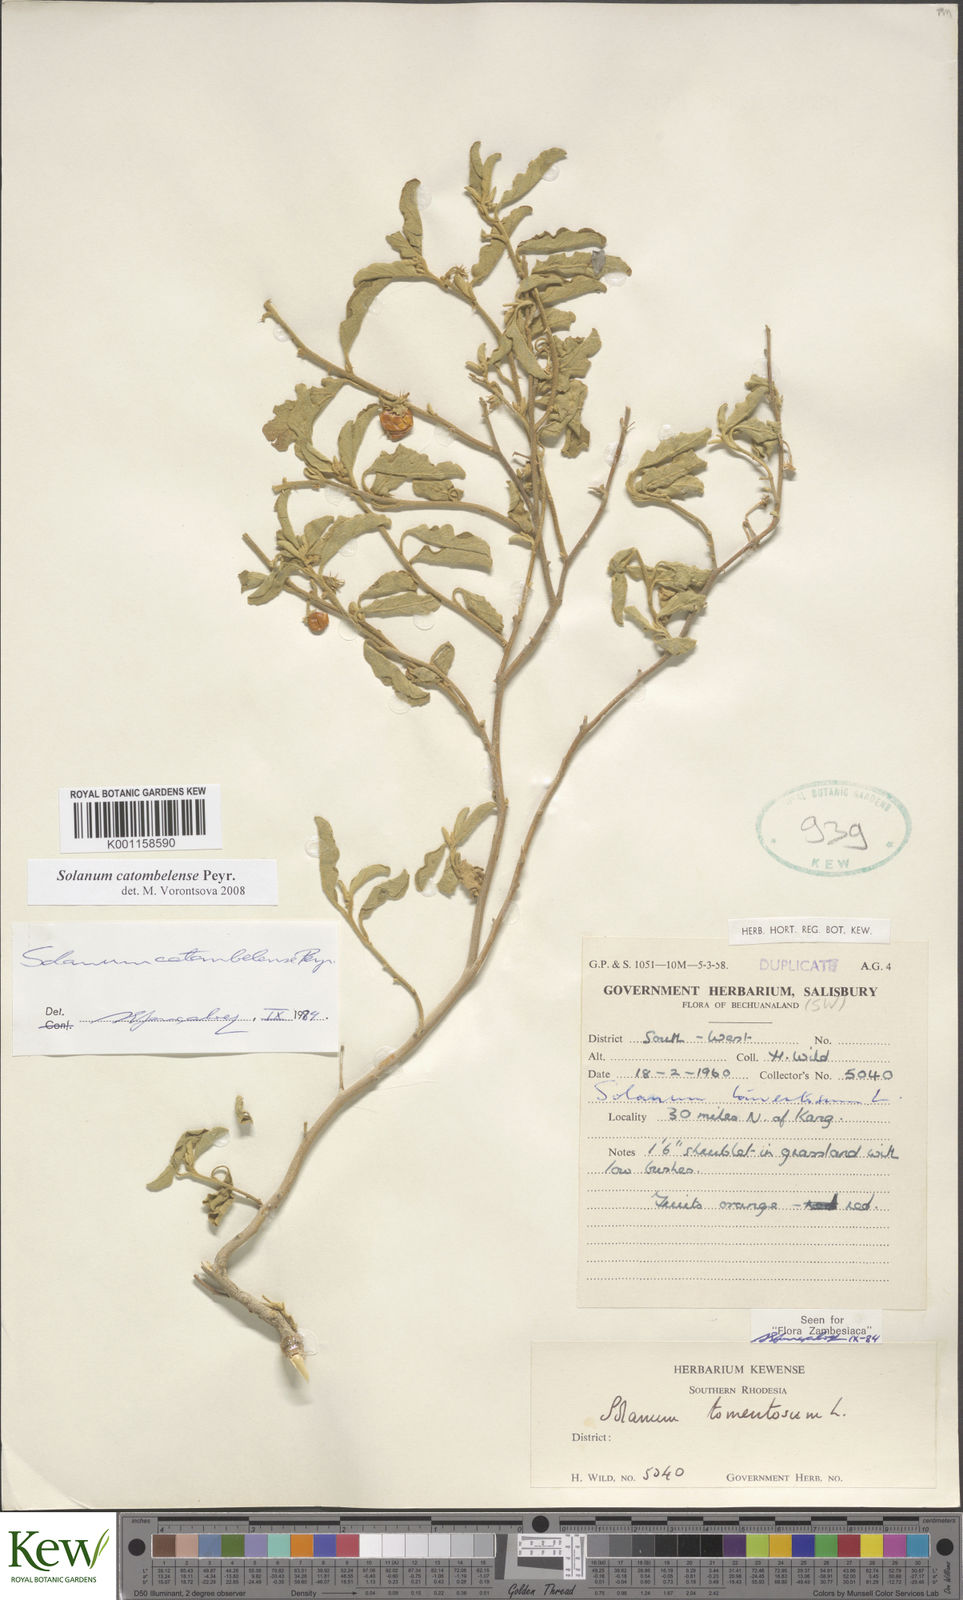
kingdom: Plantae
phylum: Tracheophyta
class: Magnoliopsida
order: Solanales
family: Solanaceae
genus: Solanum
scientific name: Solanum catombelense
